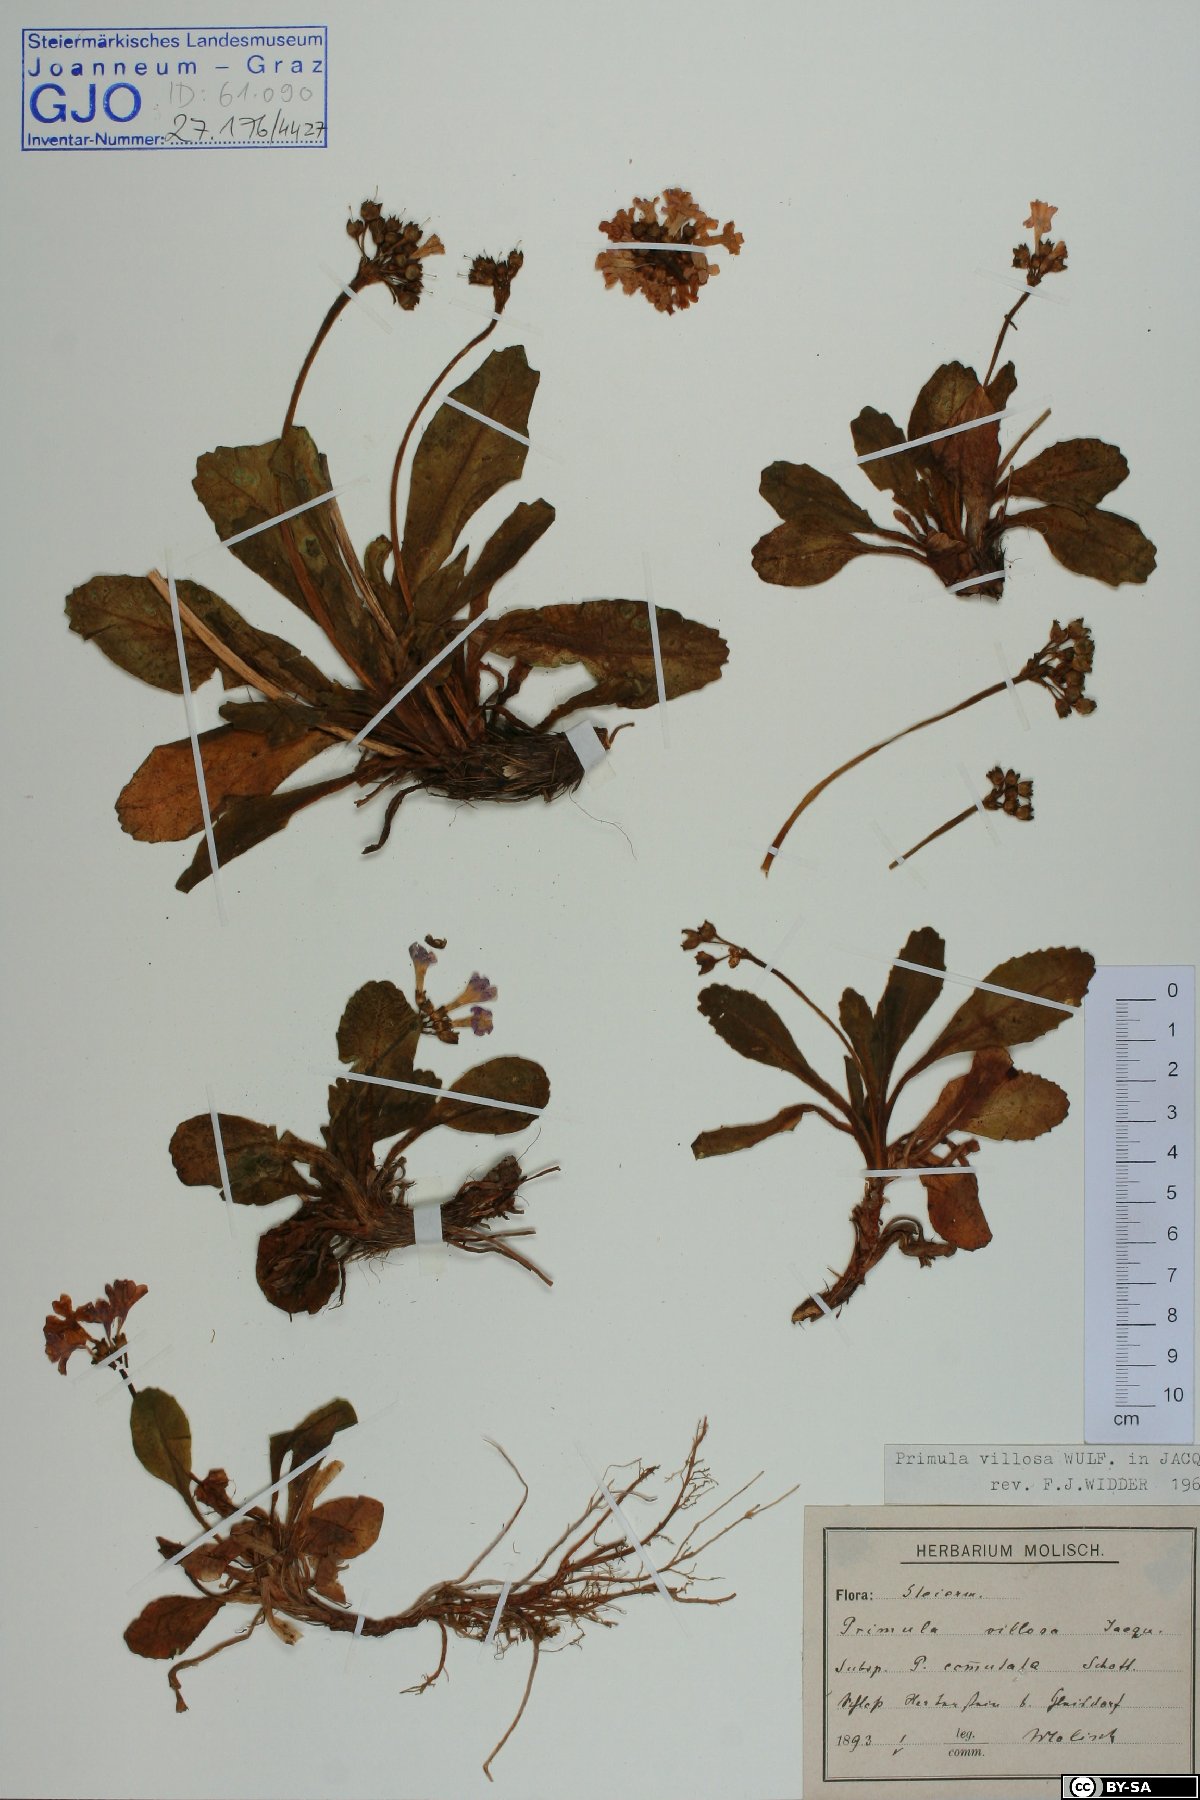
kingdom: Plantae
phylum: Tracheophyta
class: Magnoliopsida
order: Ericales
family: Primulaceae
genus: Primula
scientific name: Primula villosa
